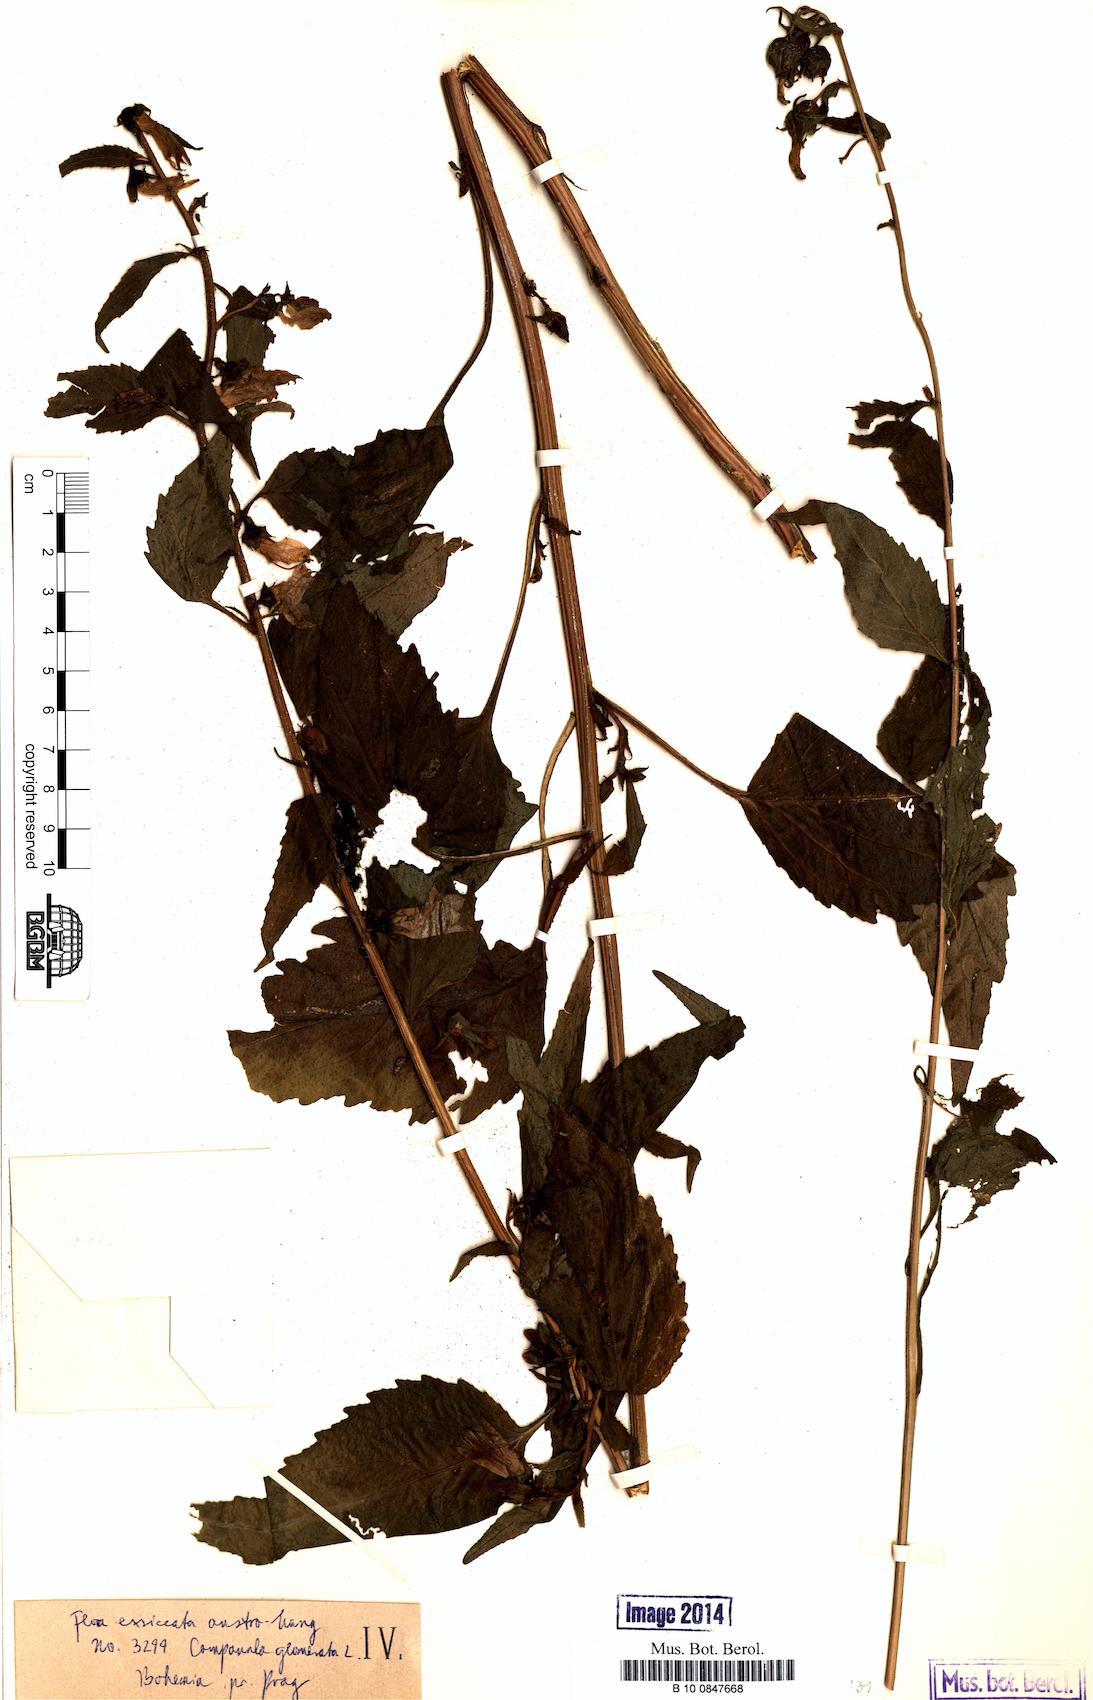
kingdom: Plantae
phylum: Tracheophyta
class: Magnoliopsida
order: Asterales
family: Campanulaceae
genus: Campanula
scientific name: Campanula trachelium
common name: Nettle-leaved bellflower
